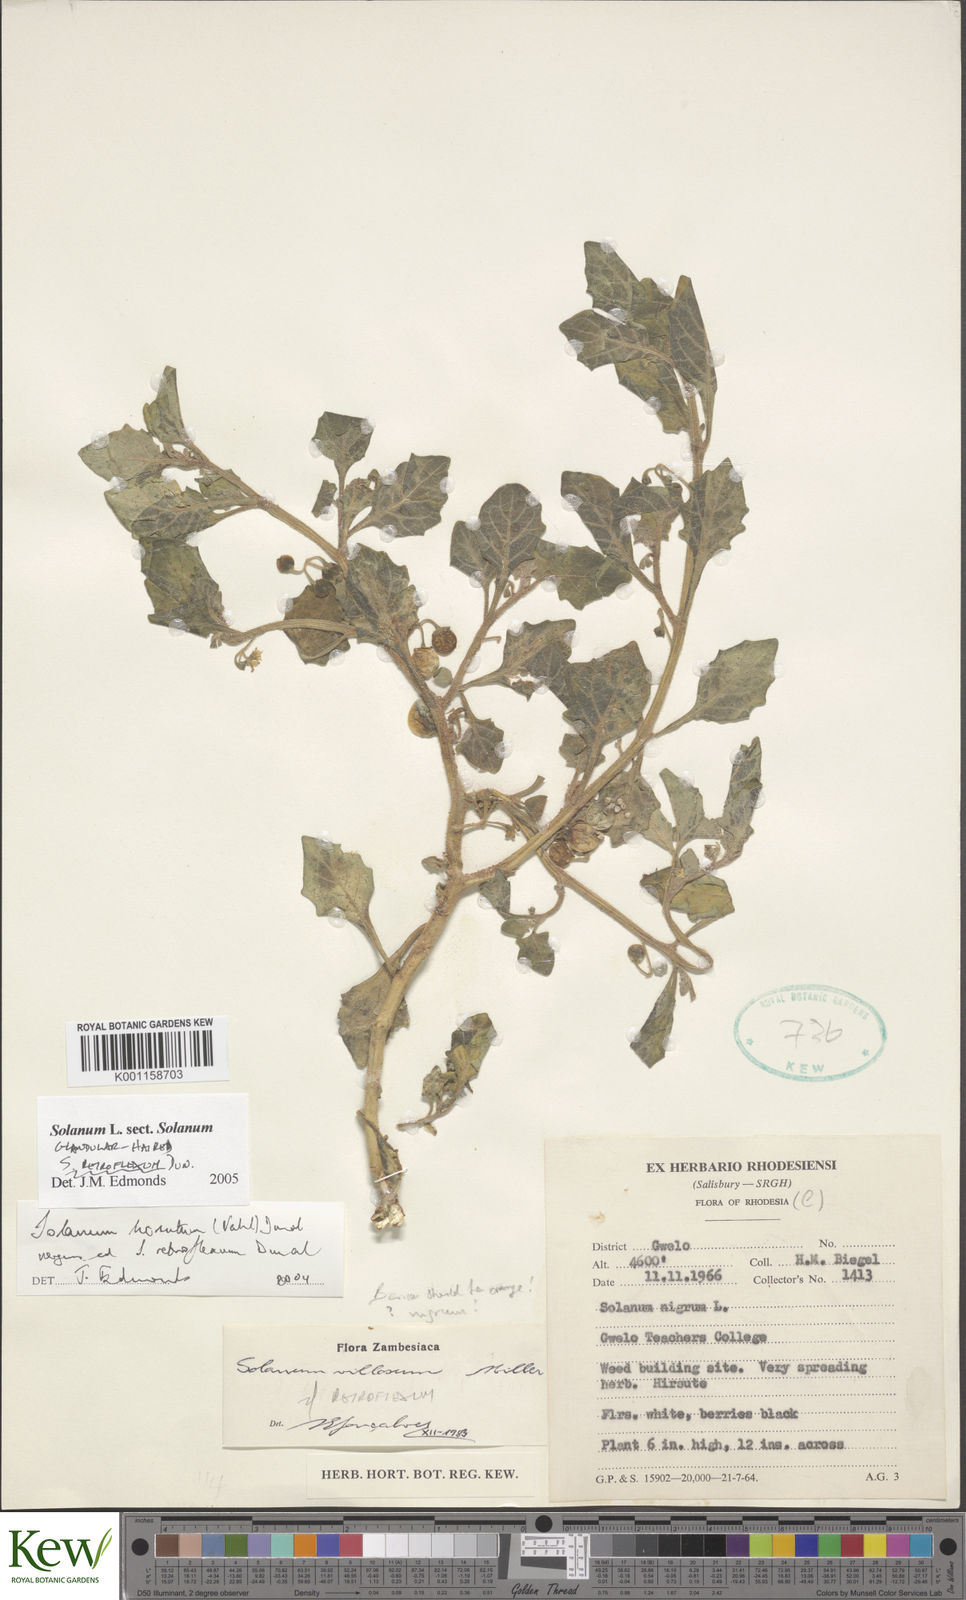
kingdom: Plantae
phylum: Tracheophyta
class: Magnoliopsida
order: Solanales
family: Solanaceae
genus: Solanum
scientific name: Solanum retroflexum
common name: Wonderberry
